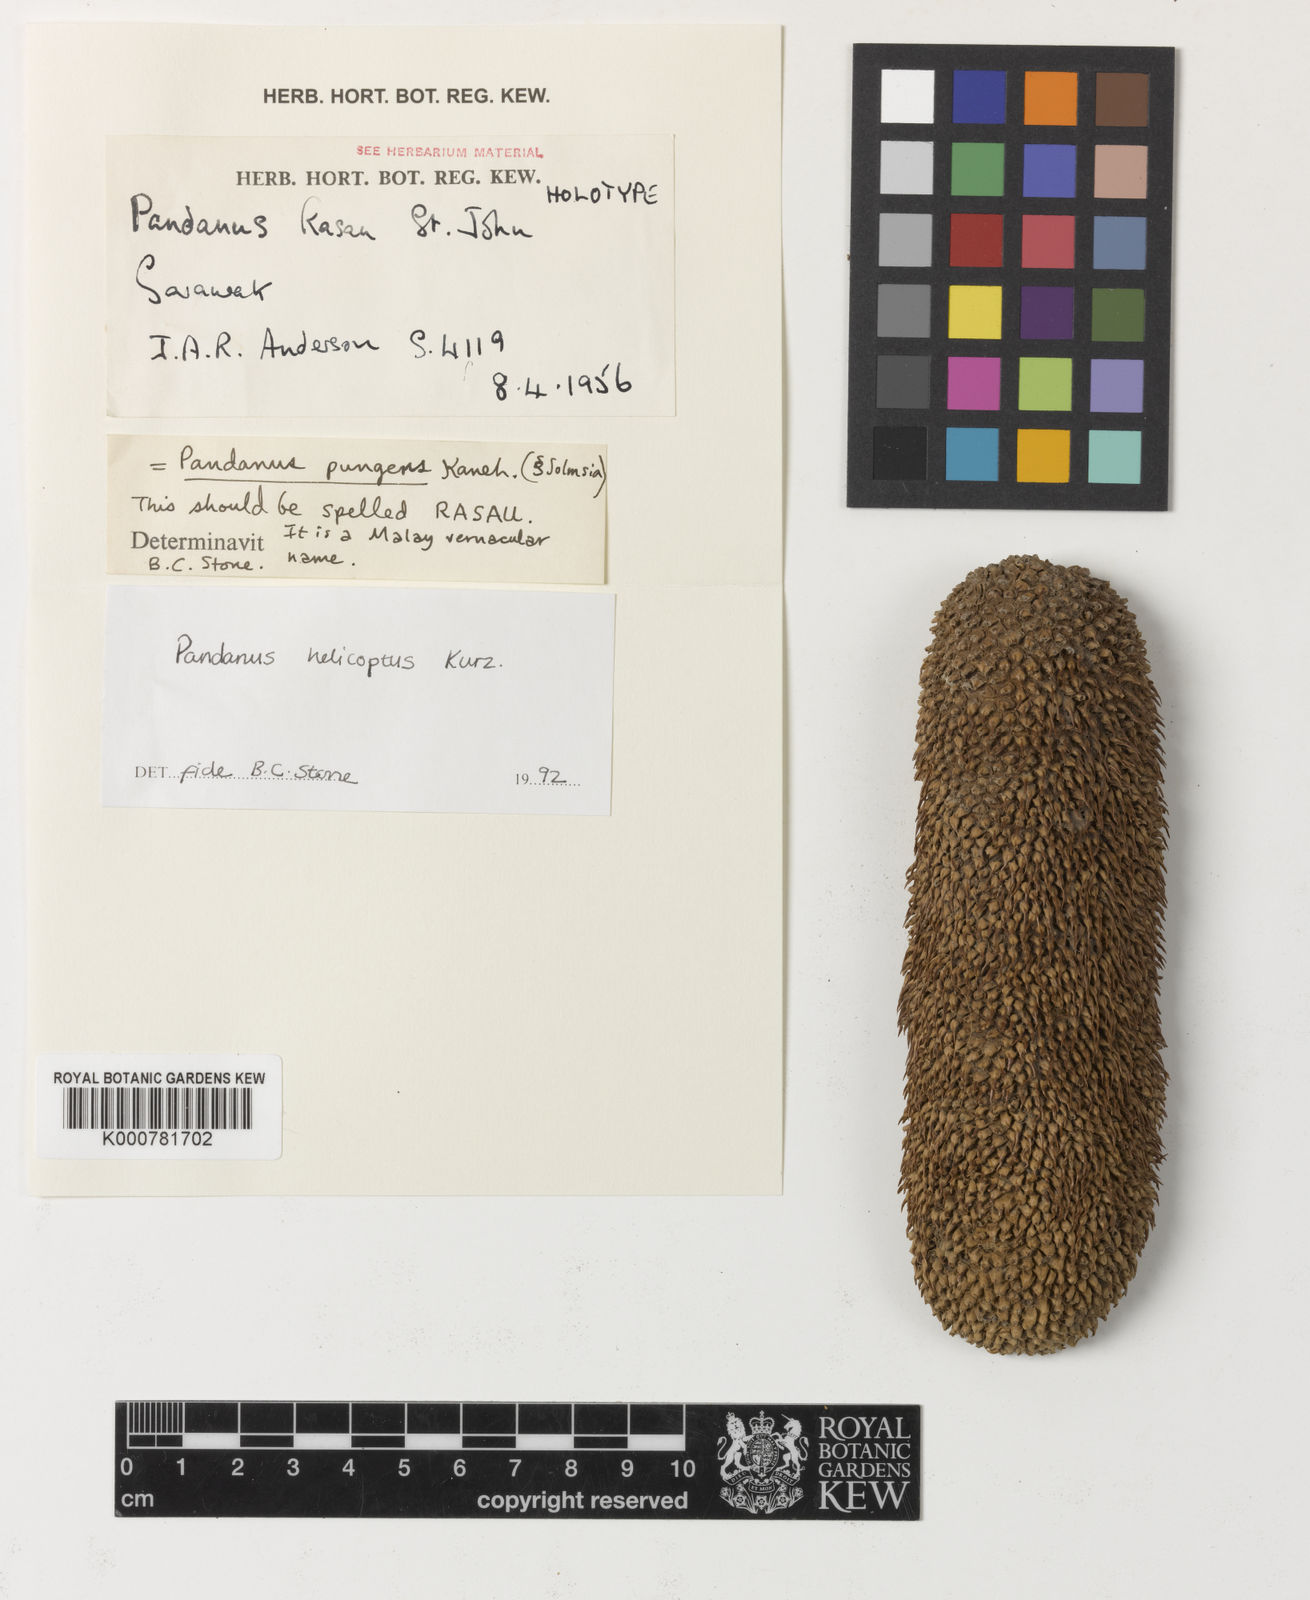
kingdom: Plantae
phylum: Tracheophyta
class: Liliopsida
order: Pandanales
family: Pandanaceae
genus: Pandanus
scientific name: Pandanus
